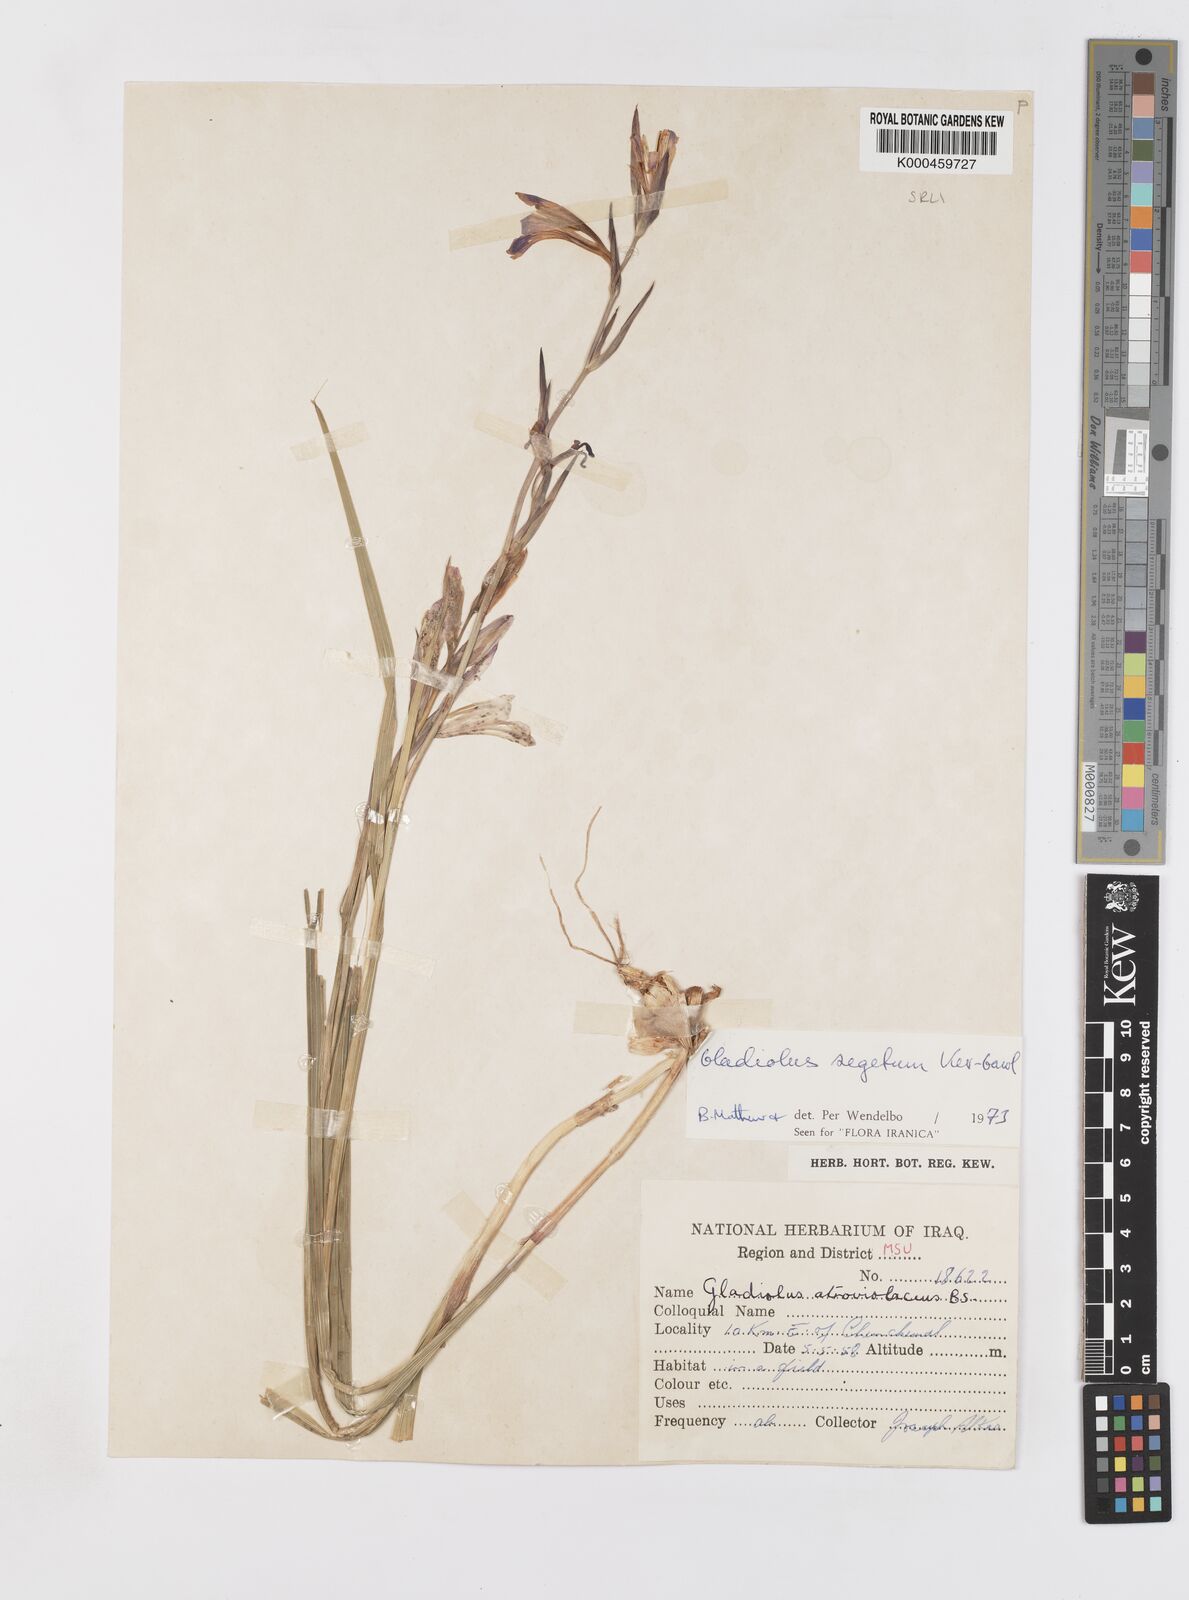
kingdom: Plantae
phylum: Tracheophyta
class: Liliopsida
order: Asparagales
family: Iridaceae
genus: Gladiolus
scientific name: Gladiolus italicus
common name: Field gladiolus
